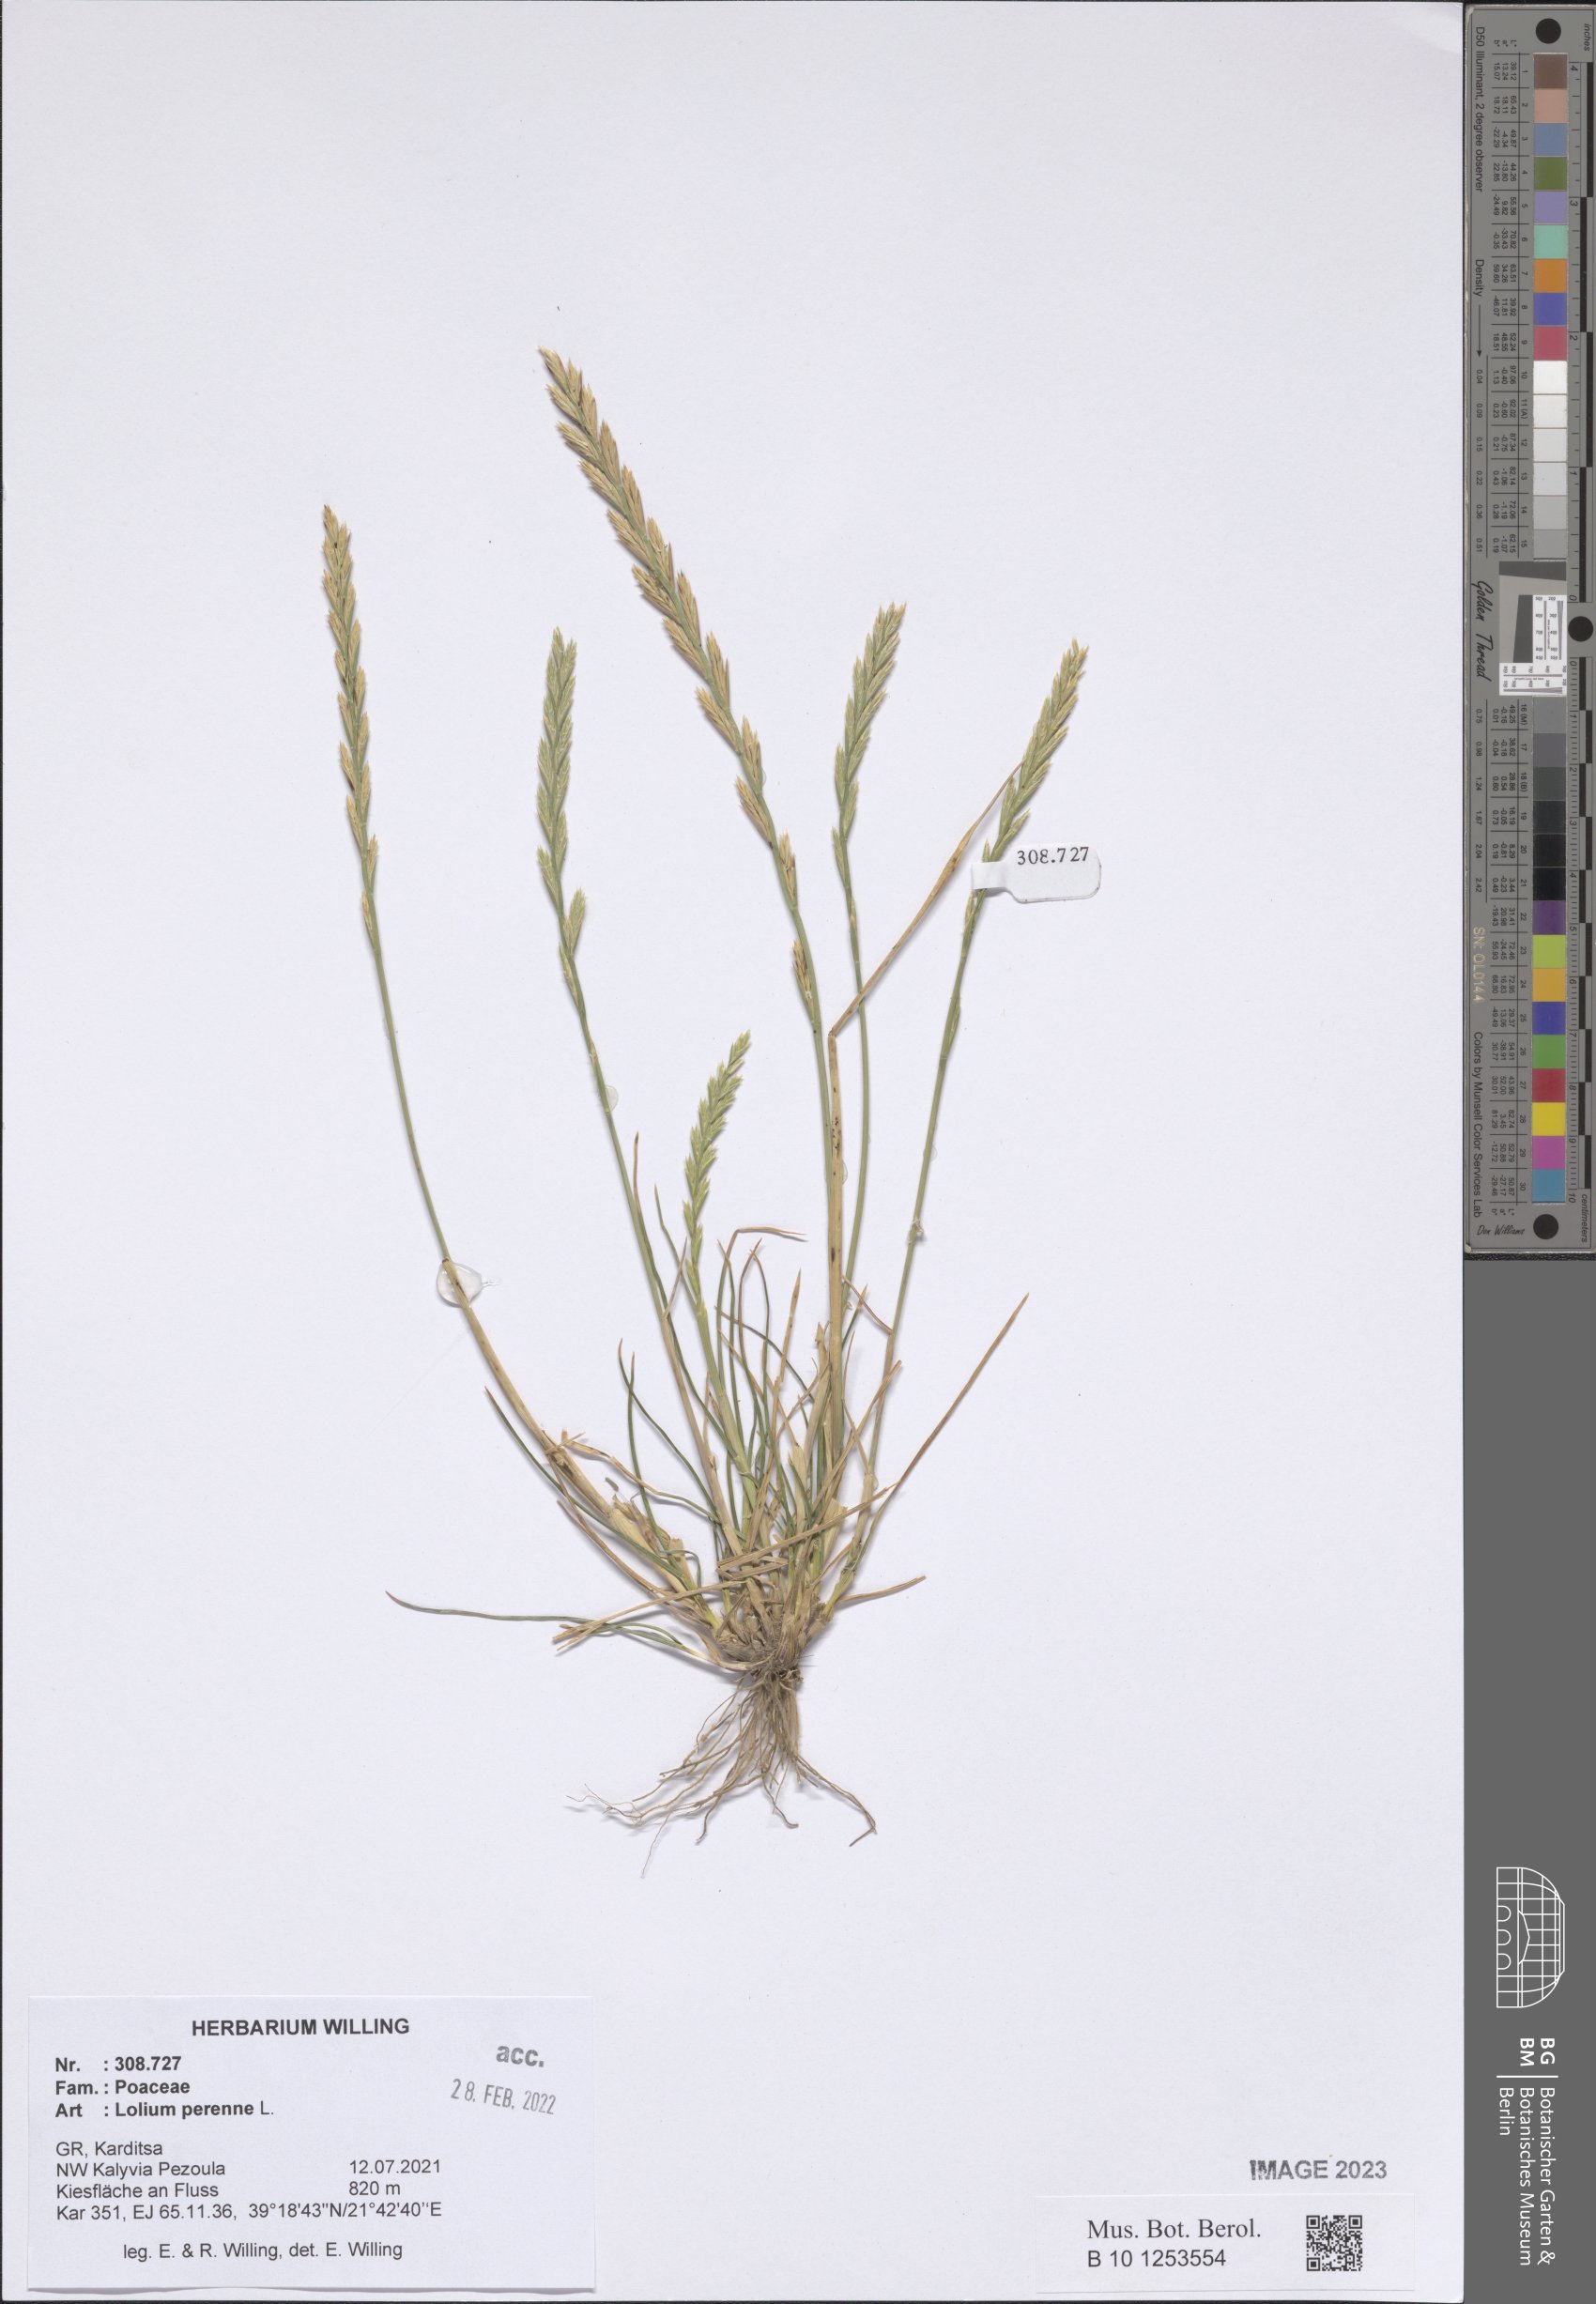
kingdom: Plantae
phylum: Tracheophyta
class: Liliopsida
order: Poales
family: Poaceae
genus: Lolium
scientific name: Lolium perenne
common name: Perennial ryegrass
